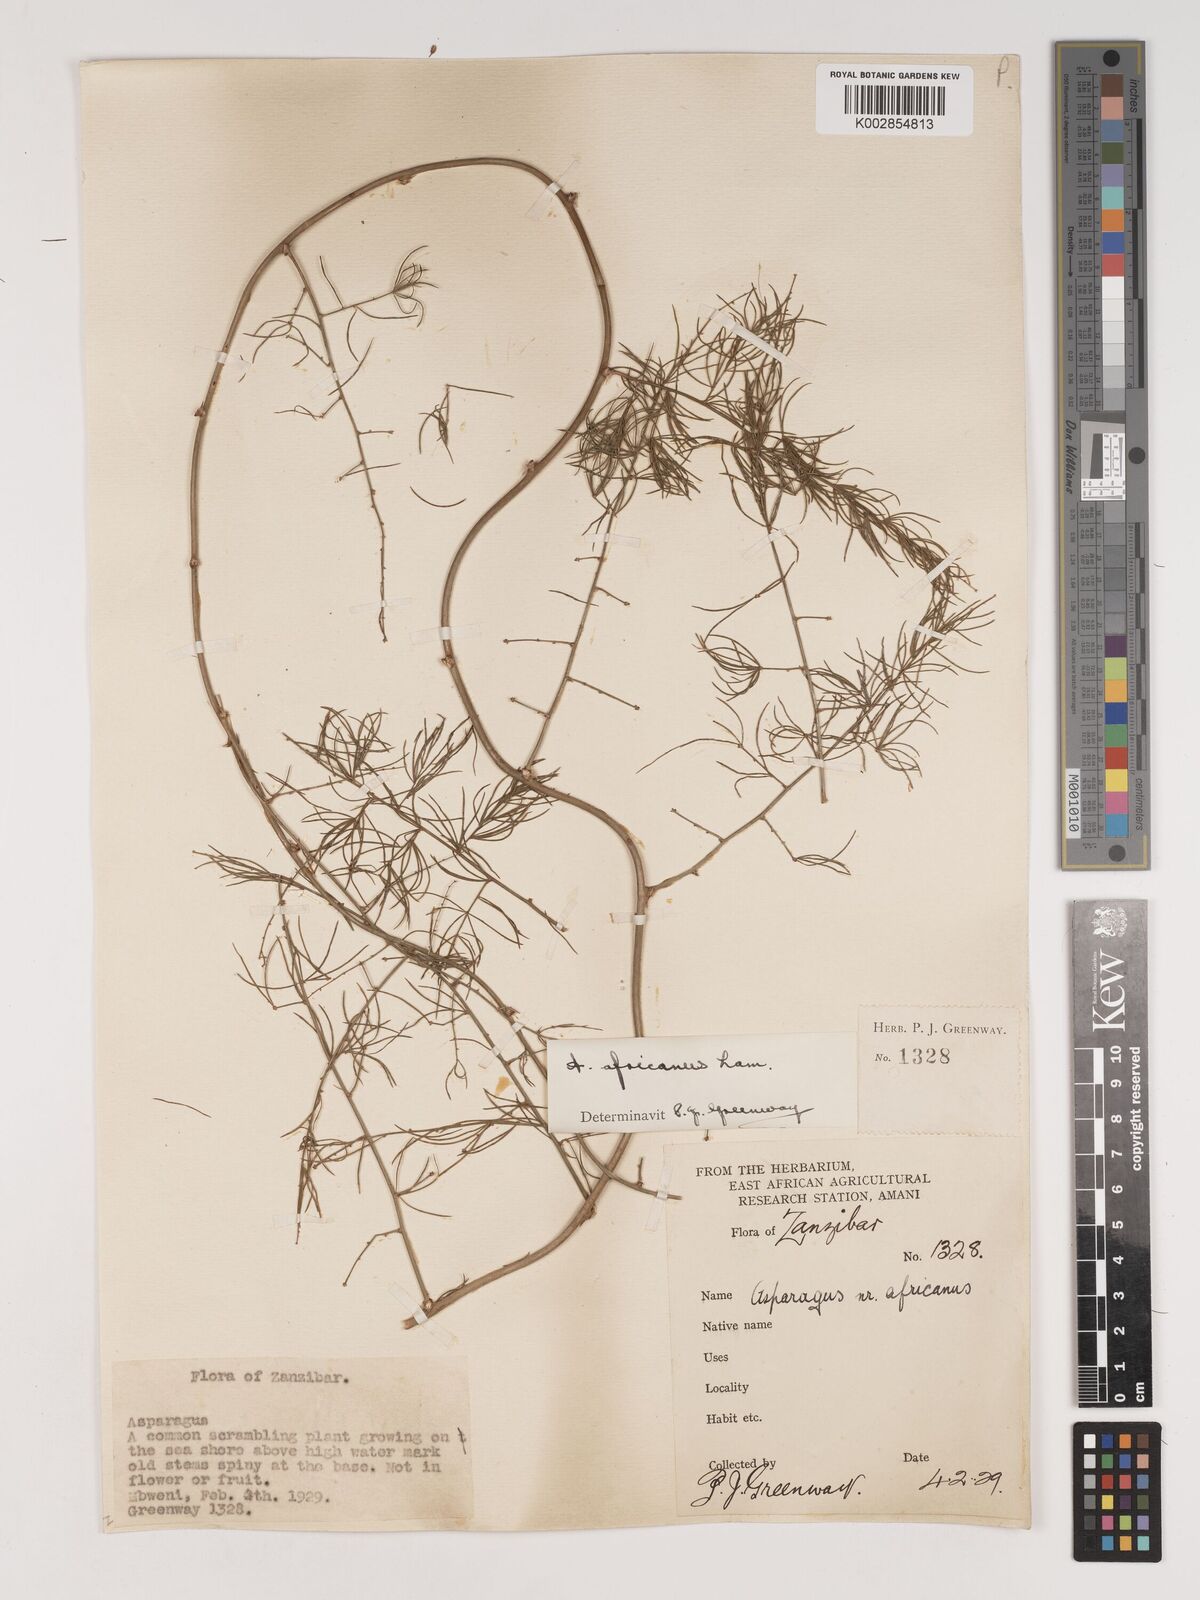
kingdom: Plantae
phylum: Tracheophyta
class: Liliopsida
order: Asparagales
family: Asparagaceae
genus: Asparagus
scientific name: Asparagus africanus
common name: Asparagus-fern
